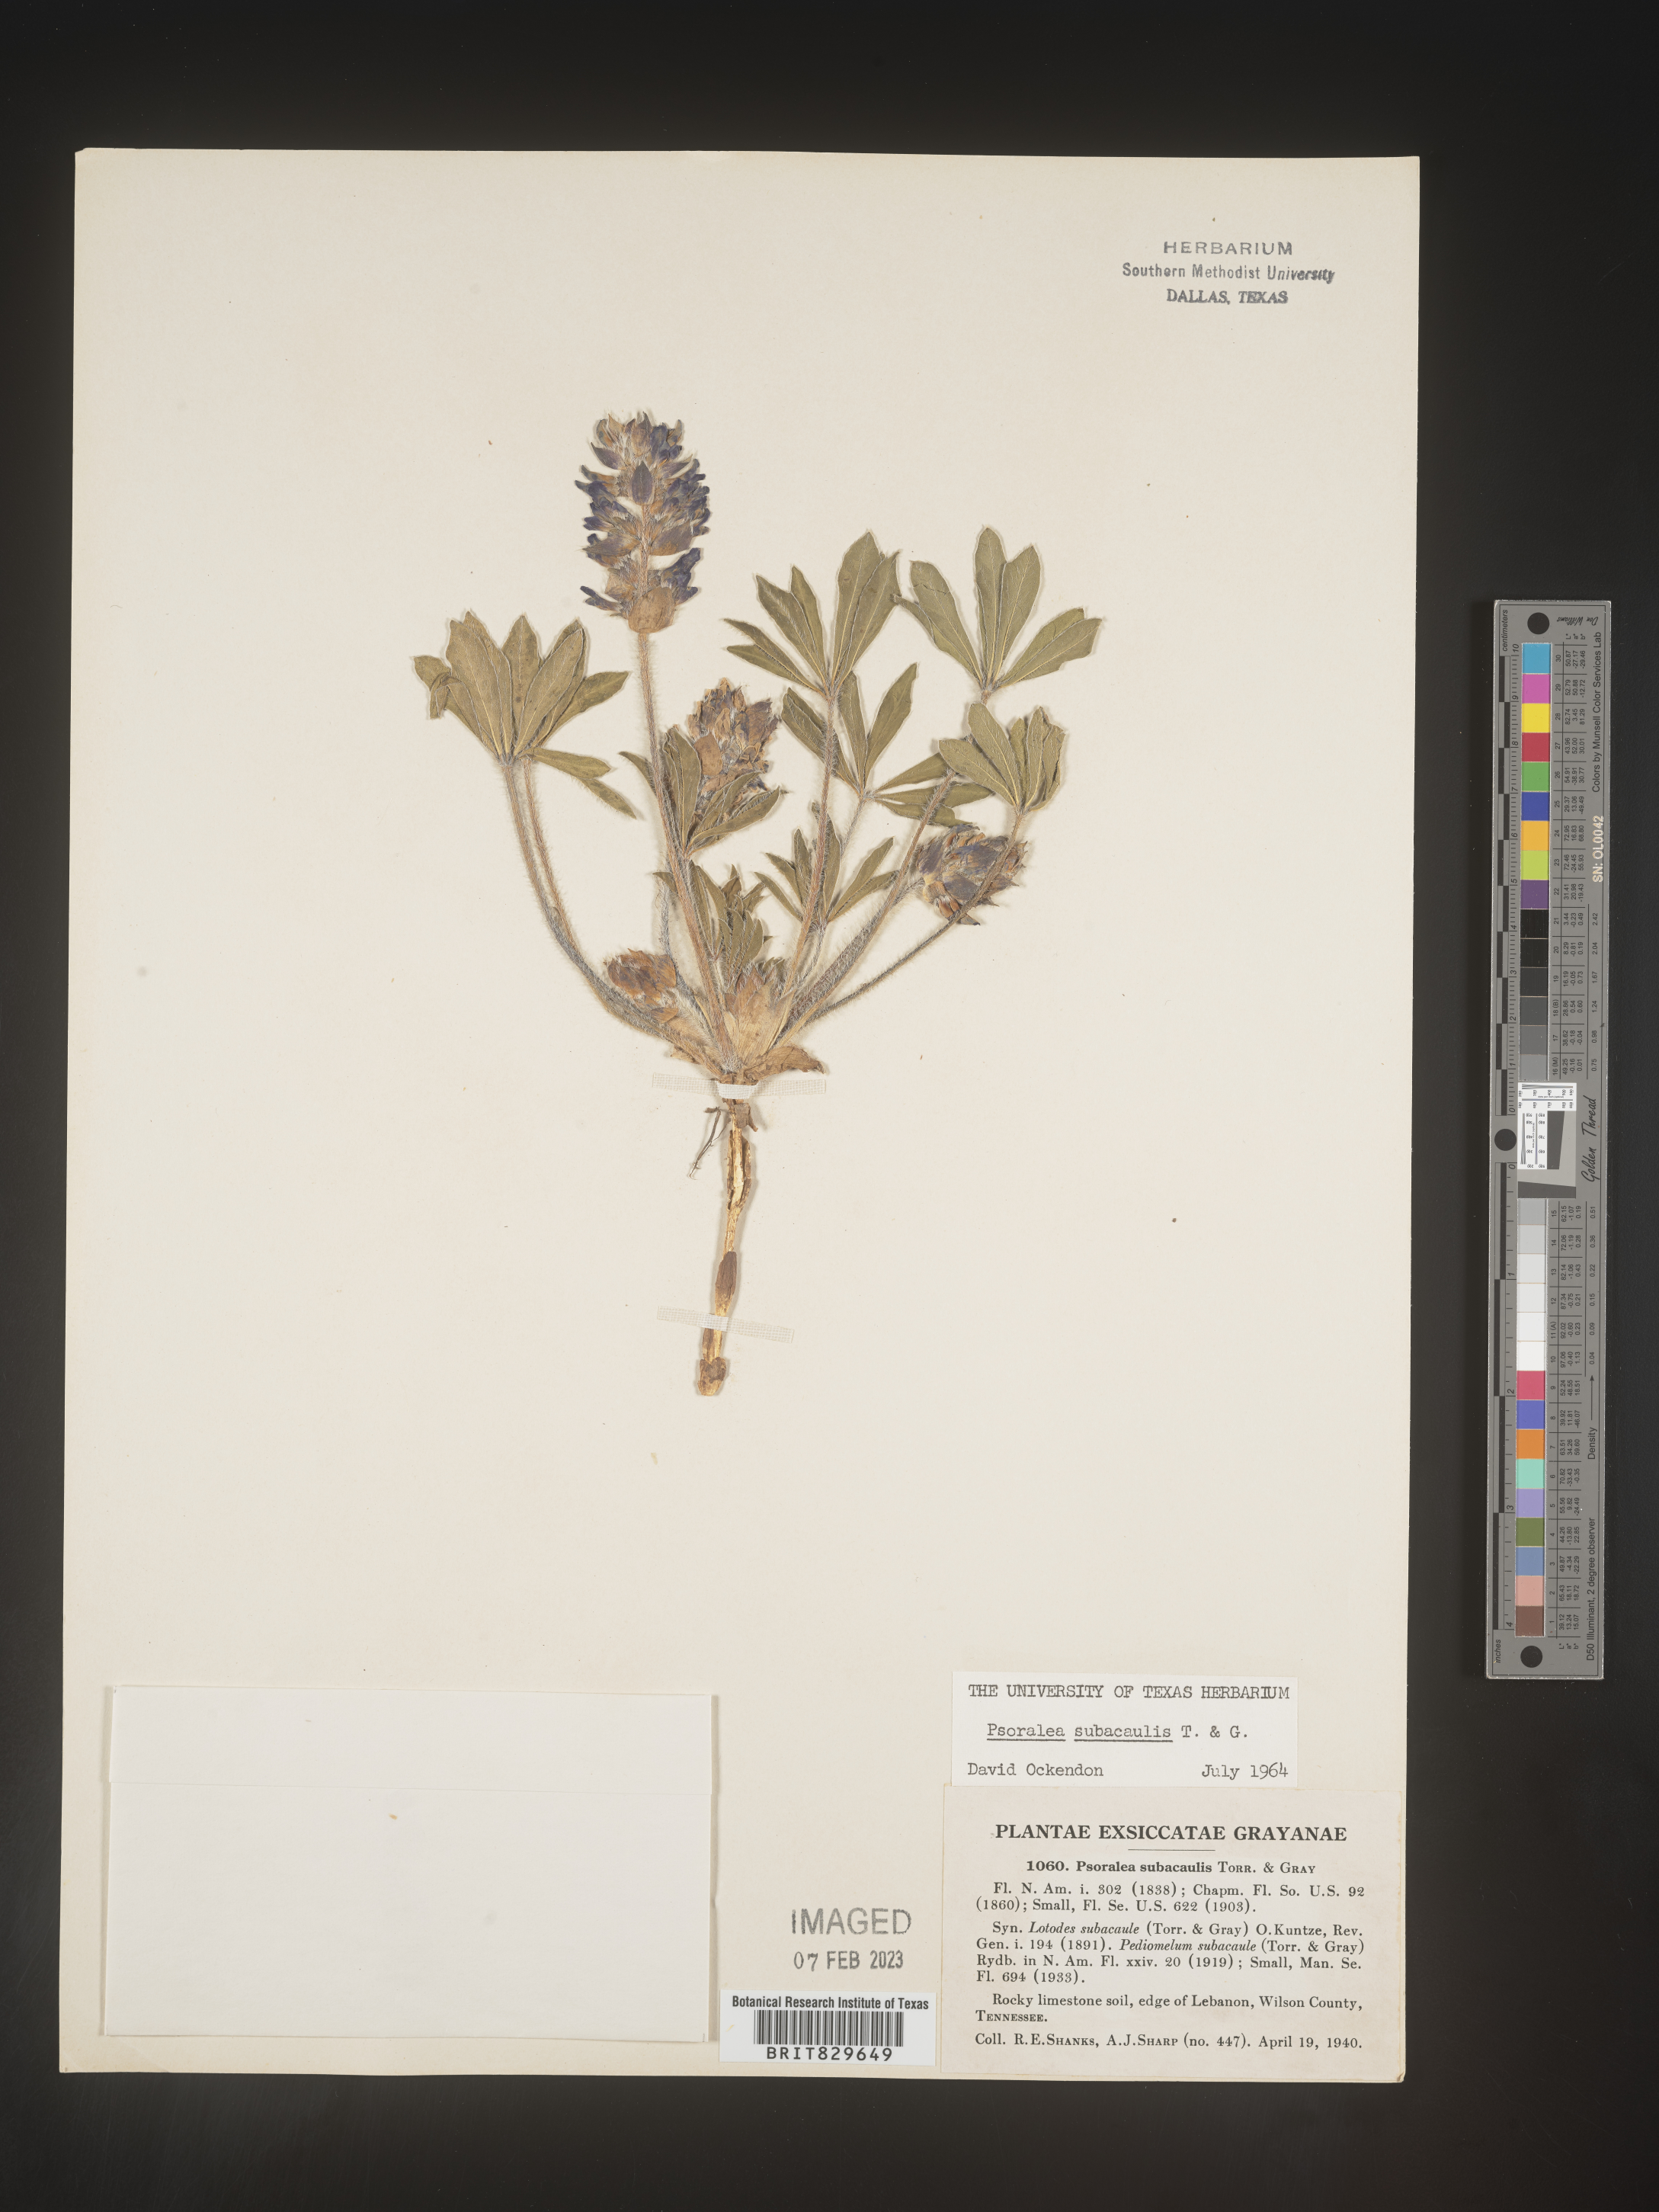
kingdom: Plantae
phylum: Tracheophyta
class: Magnoliopsida
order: Fabales
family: Fabaceae
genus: Psoralea
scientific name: Psoralea
